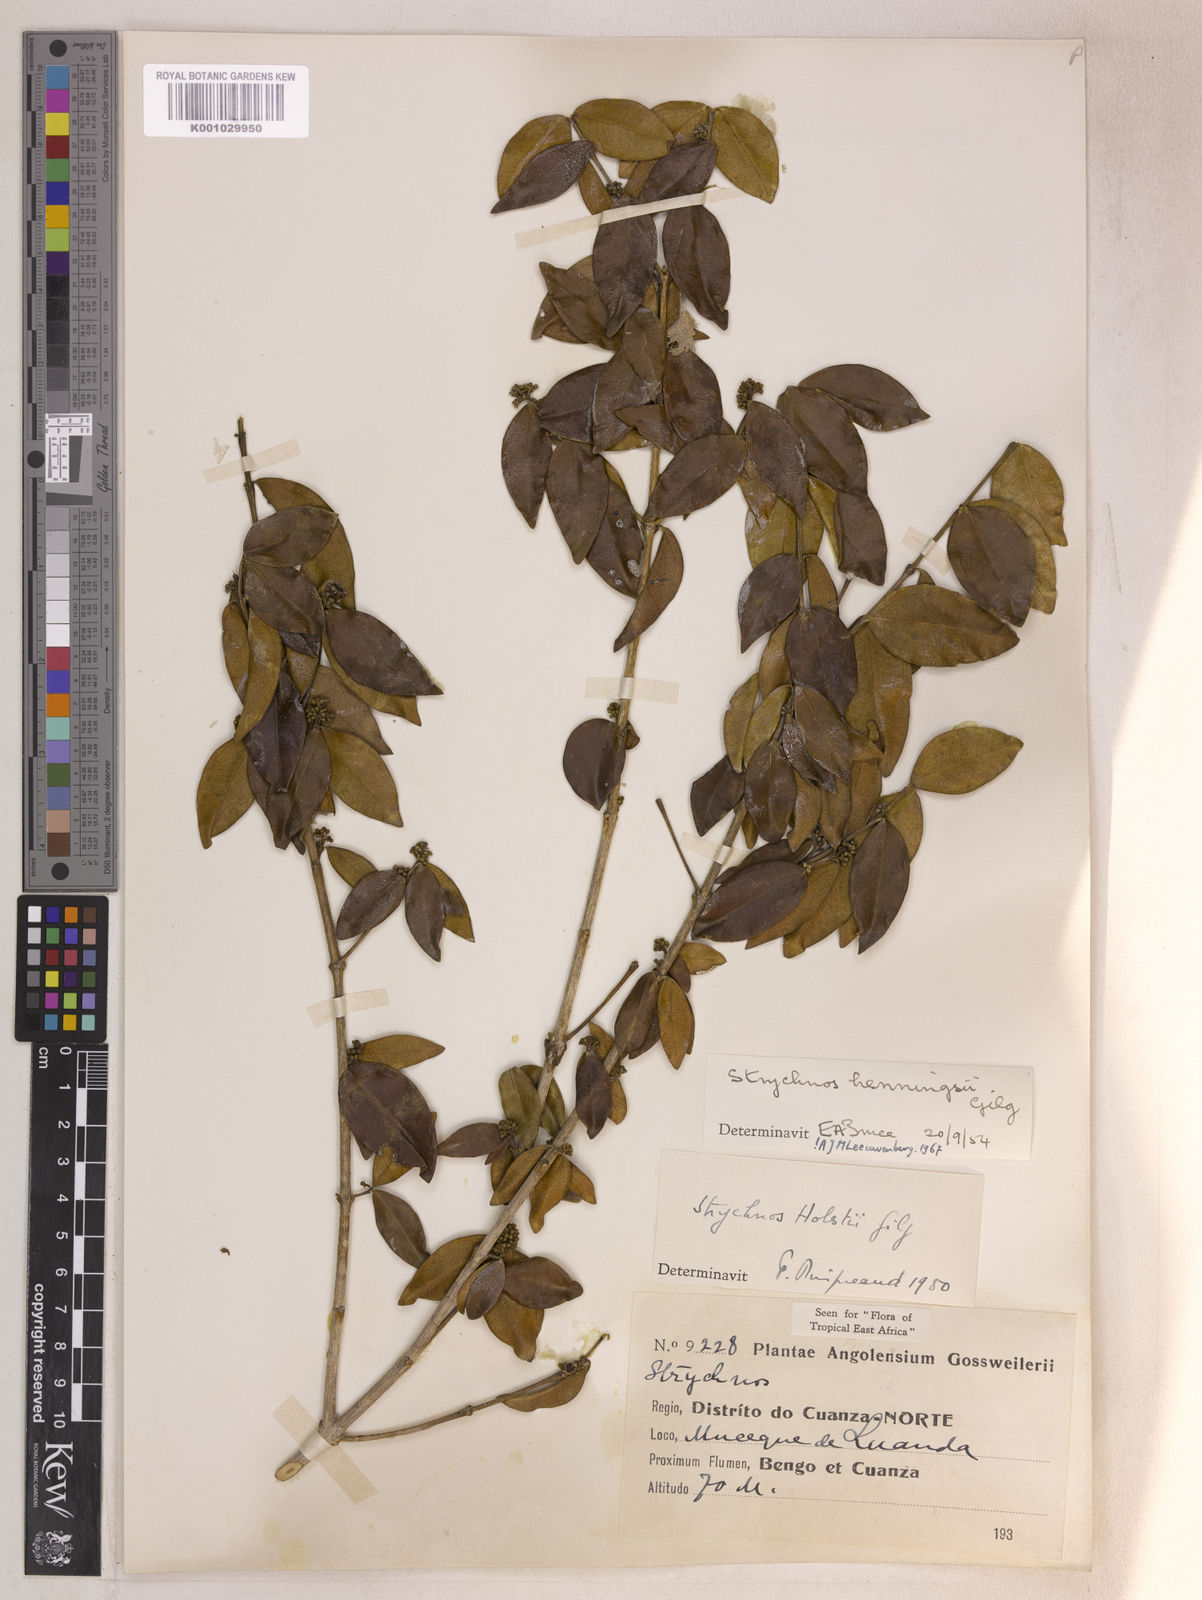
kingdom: Plantae
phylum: Tracheophyta
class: Magnoliopsida
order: Gentianales
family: Loganiaceae
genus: Strychnos
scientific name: Strychnos henningsii
